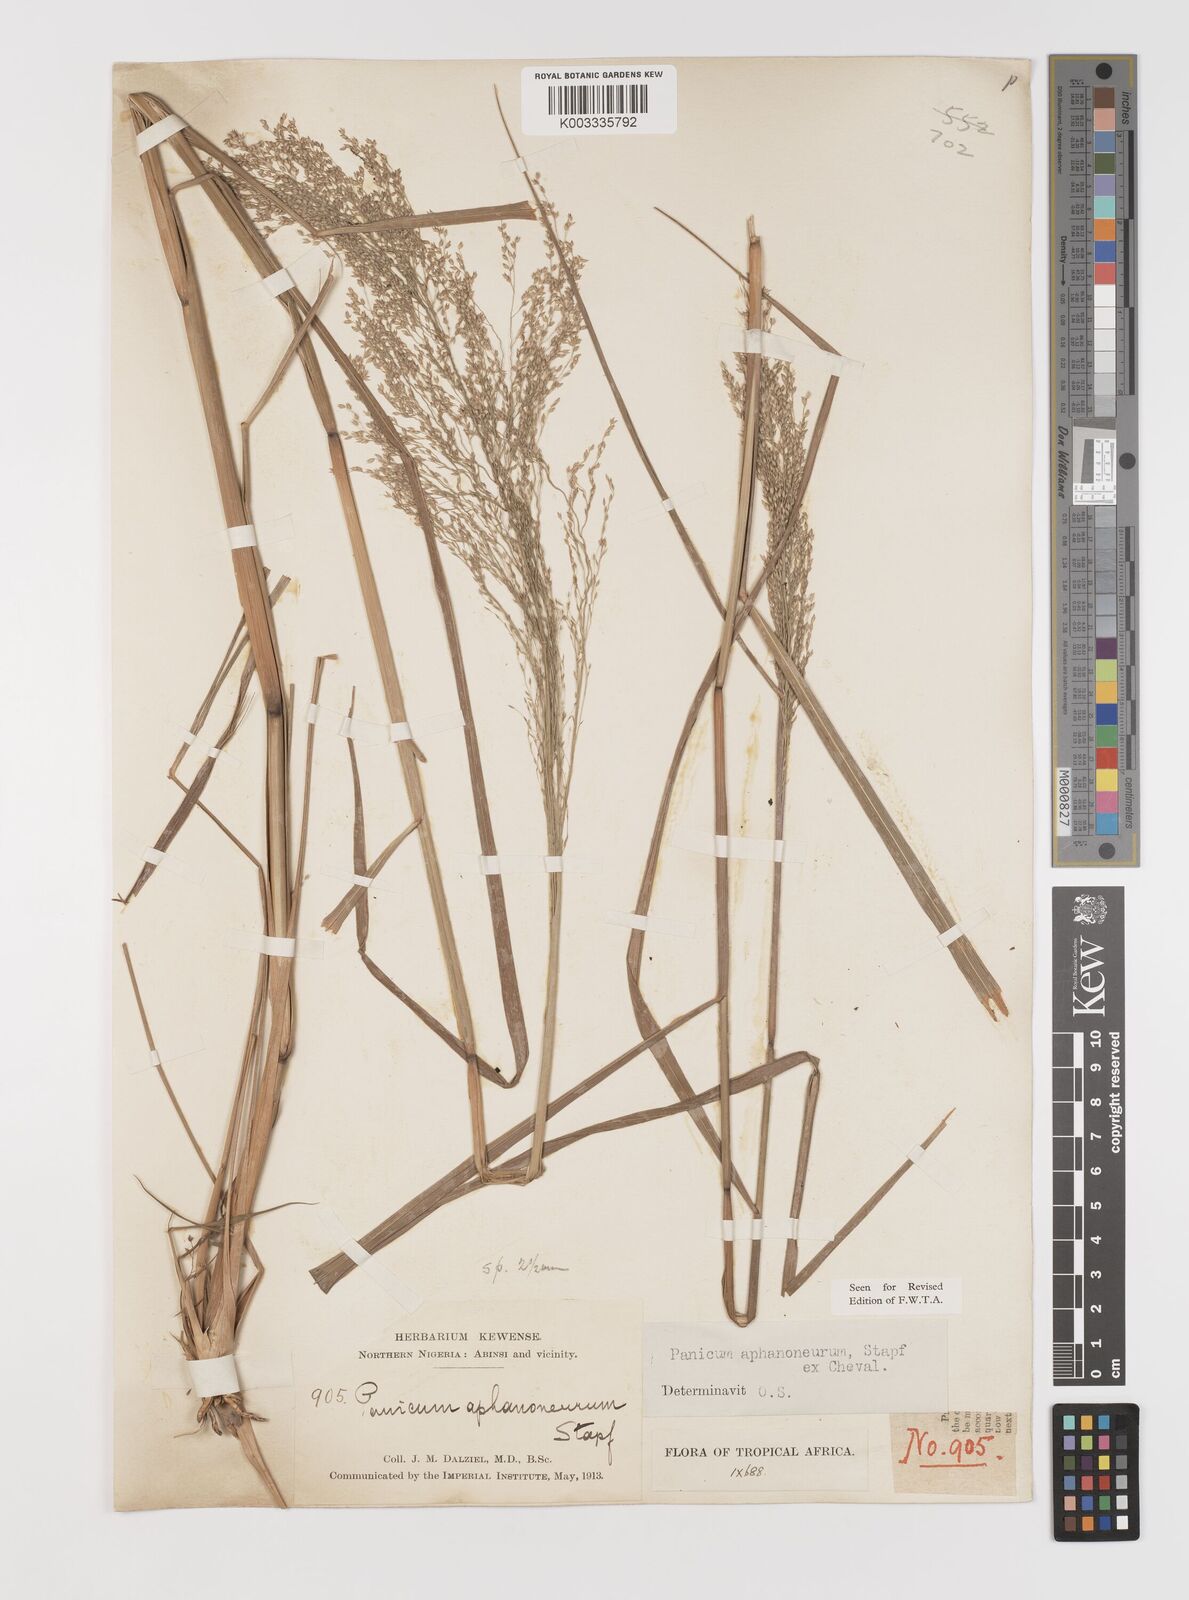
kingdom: Plantae
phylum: Tracheophyta
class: Liliopsida
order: Poales
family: Poaceae
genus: Panicum
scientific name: Panicum fluviicola
